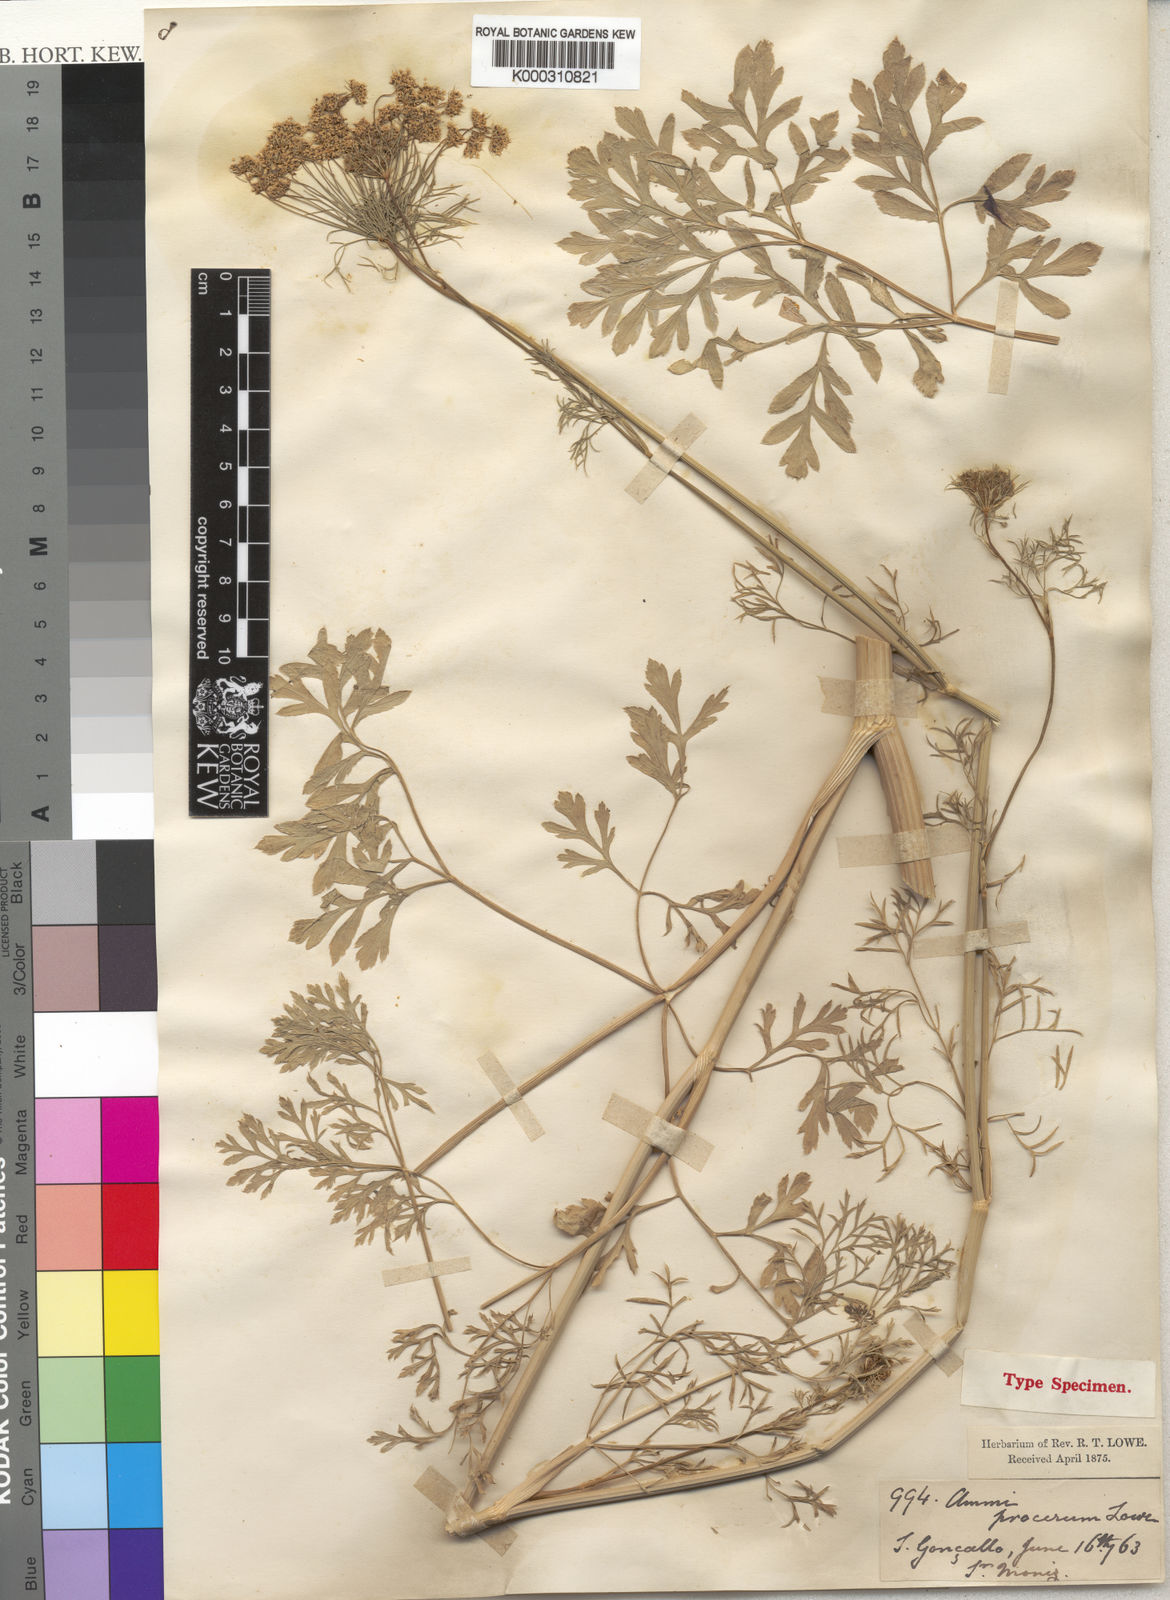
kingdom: Plantae
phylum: Tracheophyta
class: Magnoliopsida
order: Apiales
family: Apiaceae
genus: Ammi
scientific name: Ammi procerum
